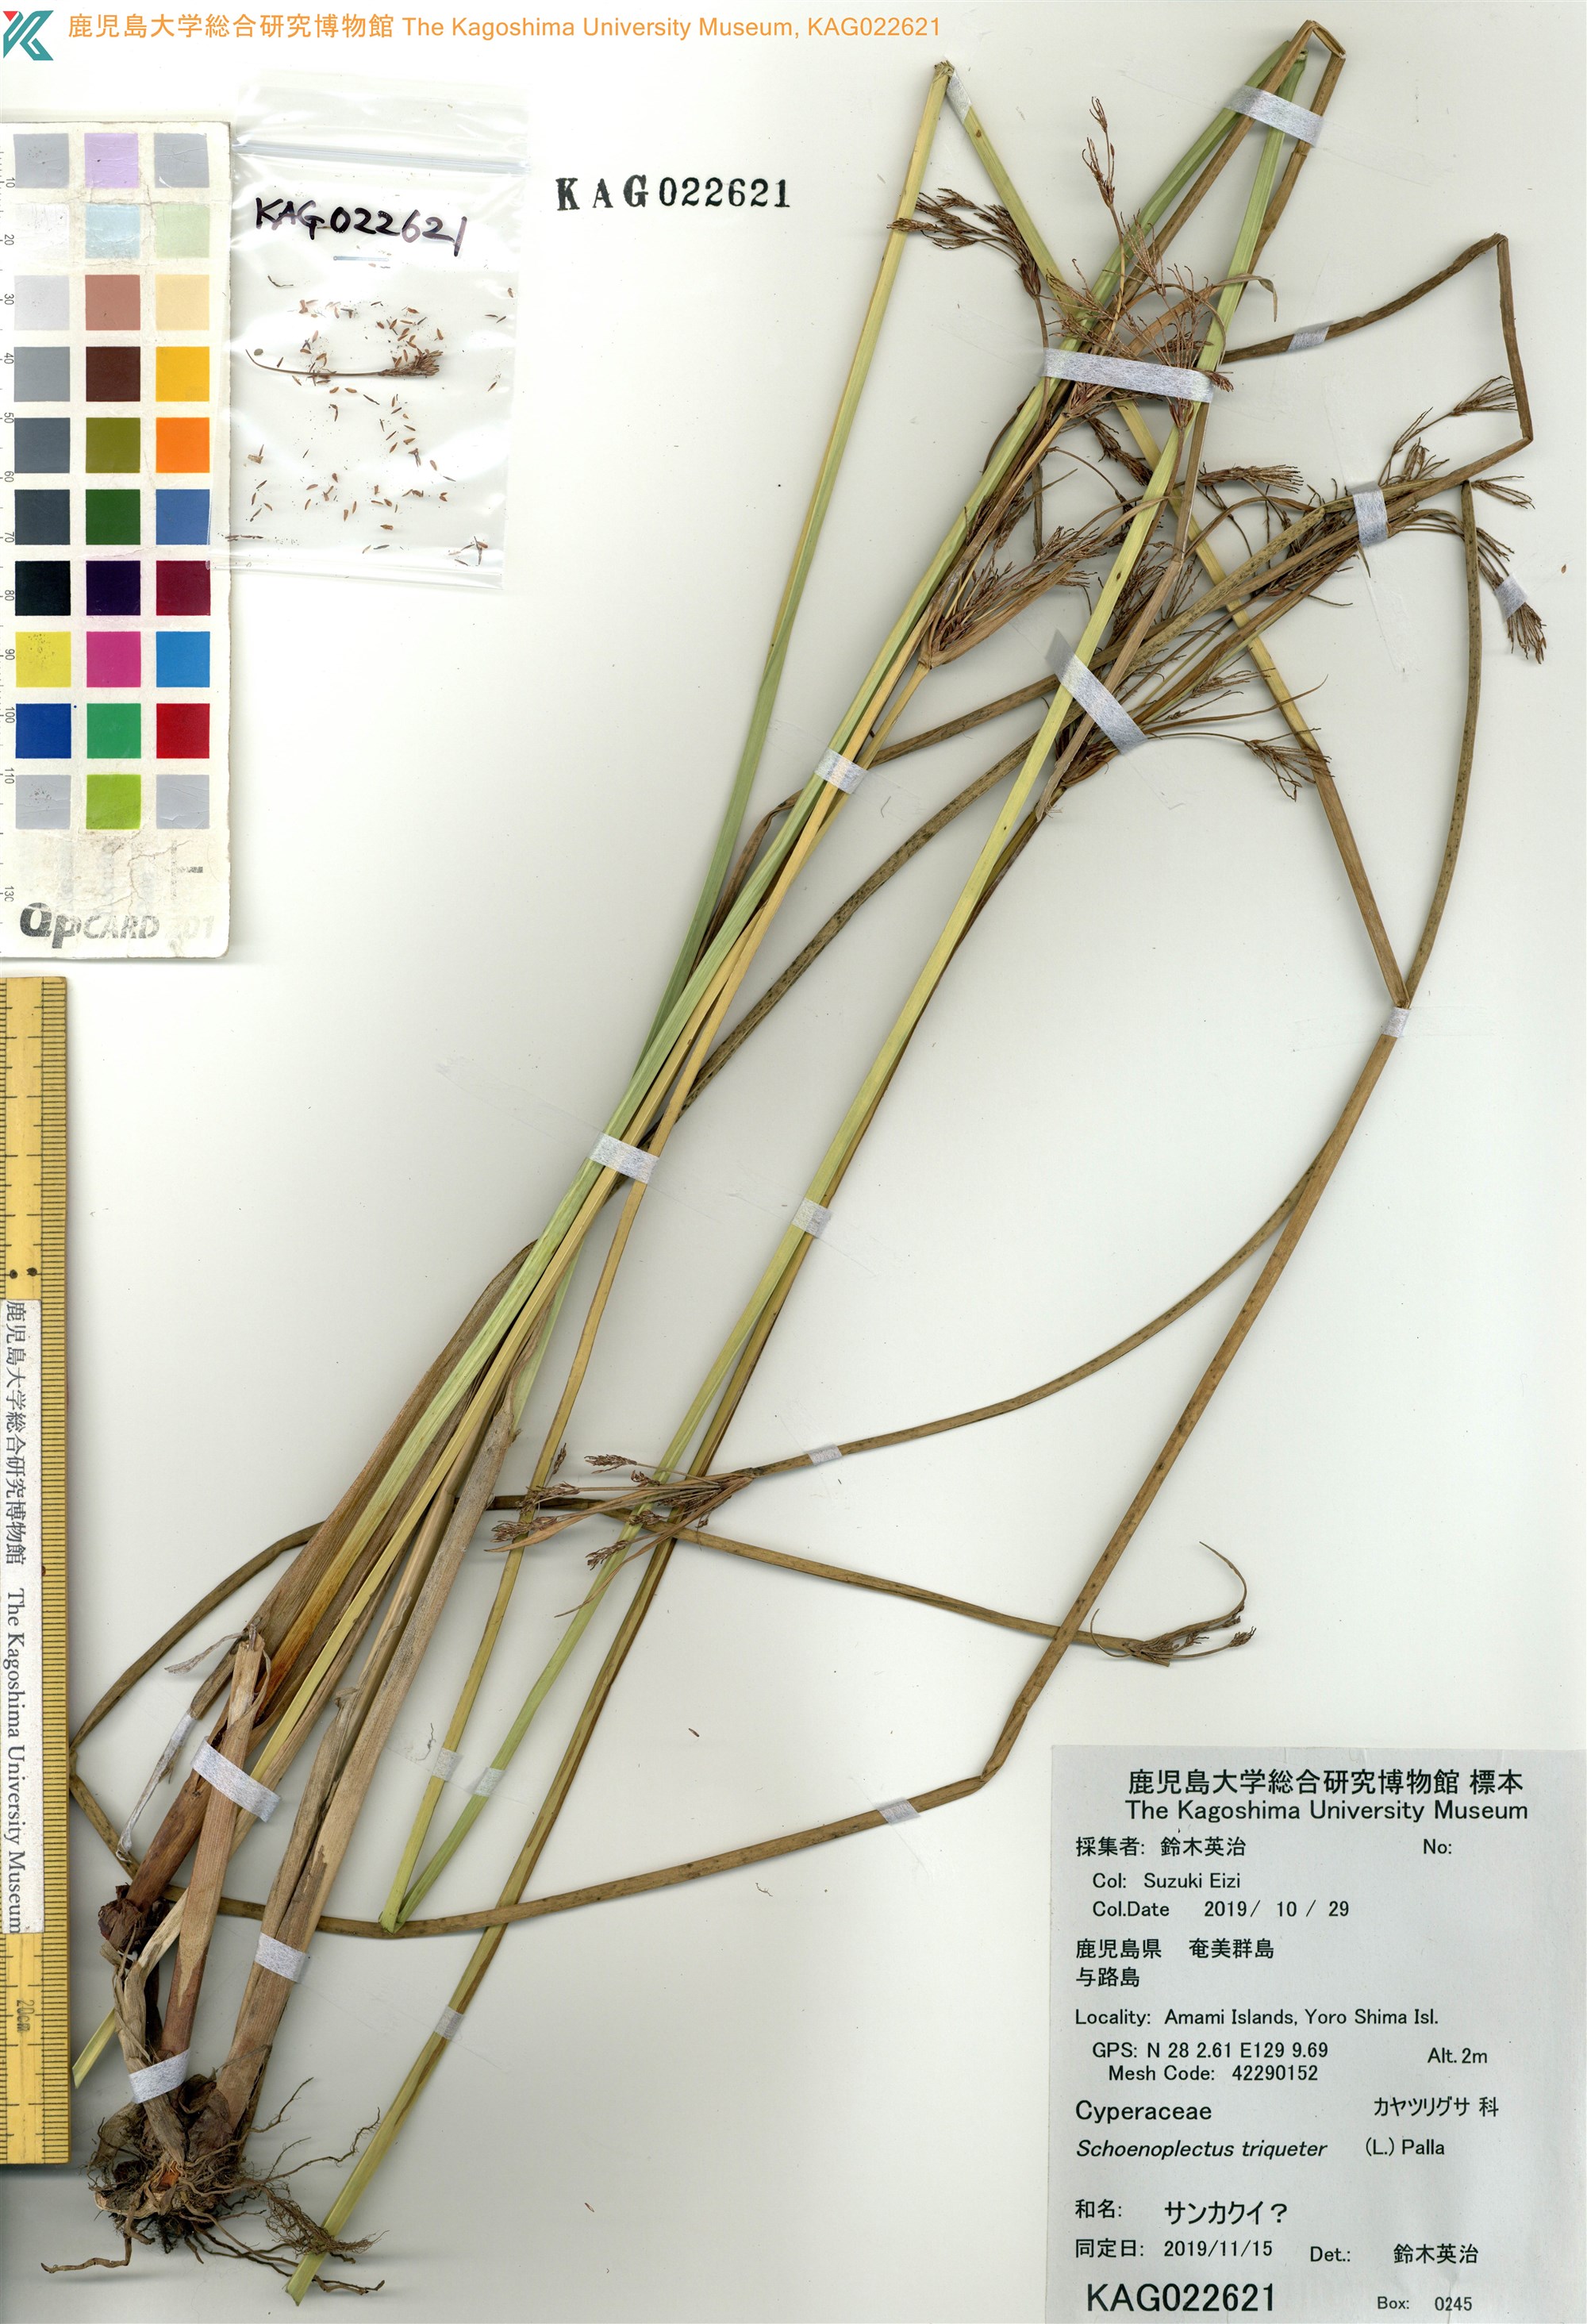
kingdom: Plantae
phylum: Tracheophyta
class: Liliopsida
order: Poales
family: Cyperaceae
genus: Schoenoplectus
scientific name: Schoenoplectus
